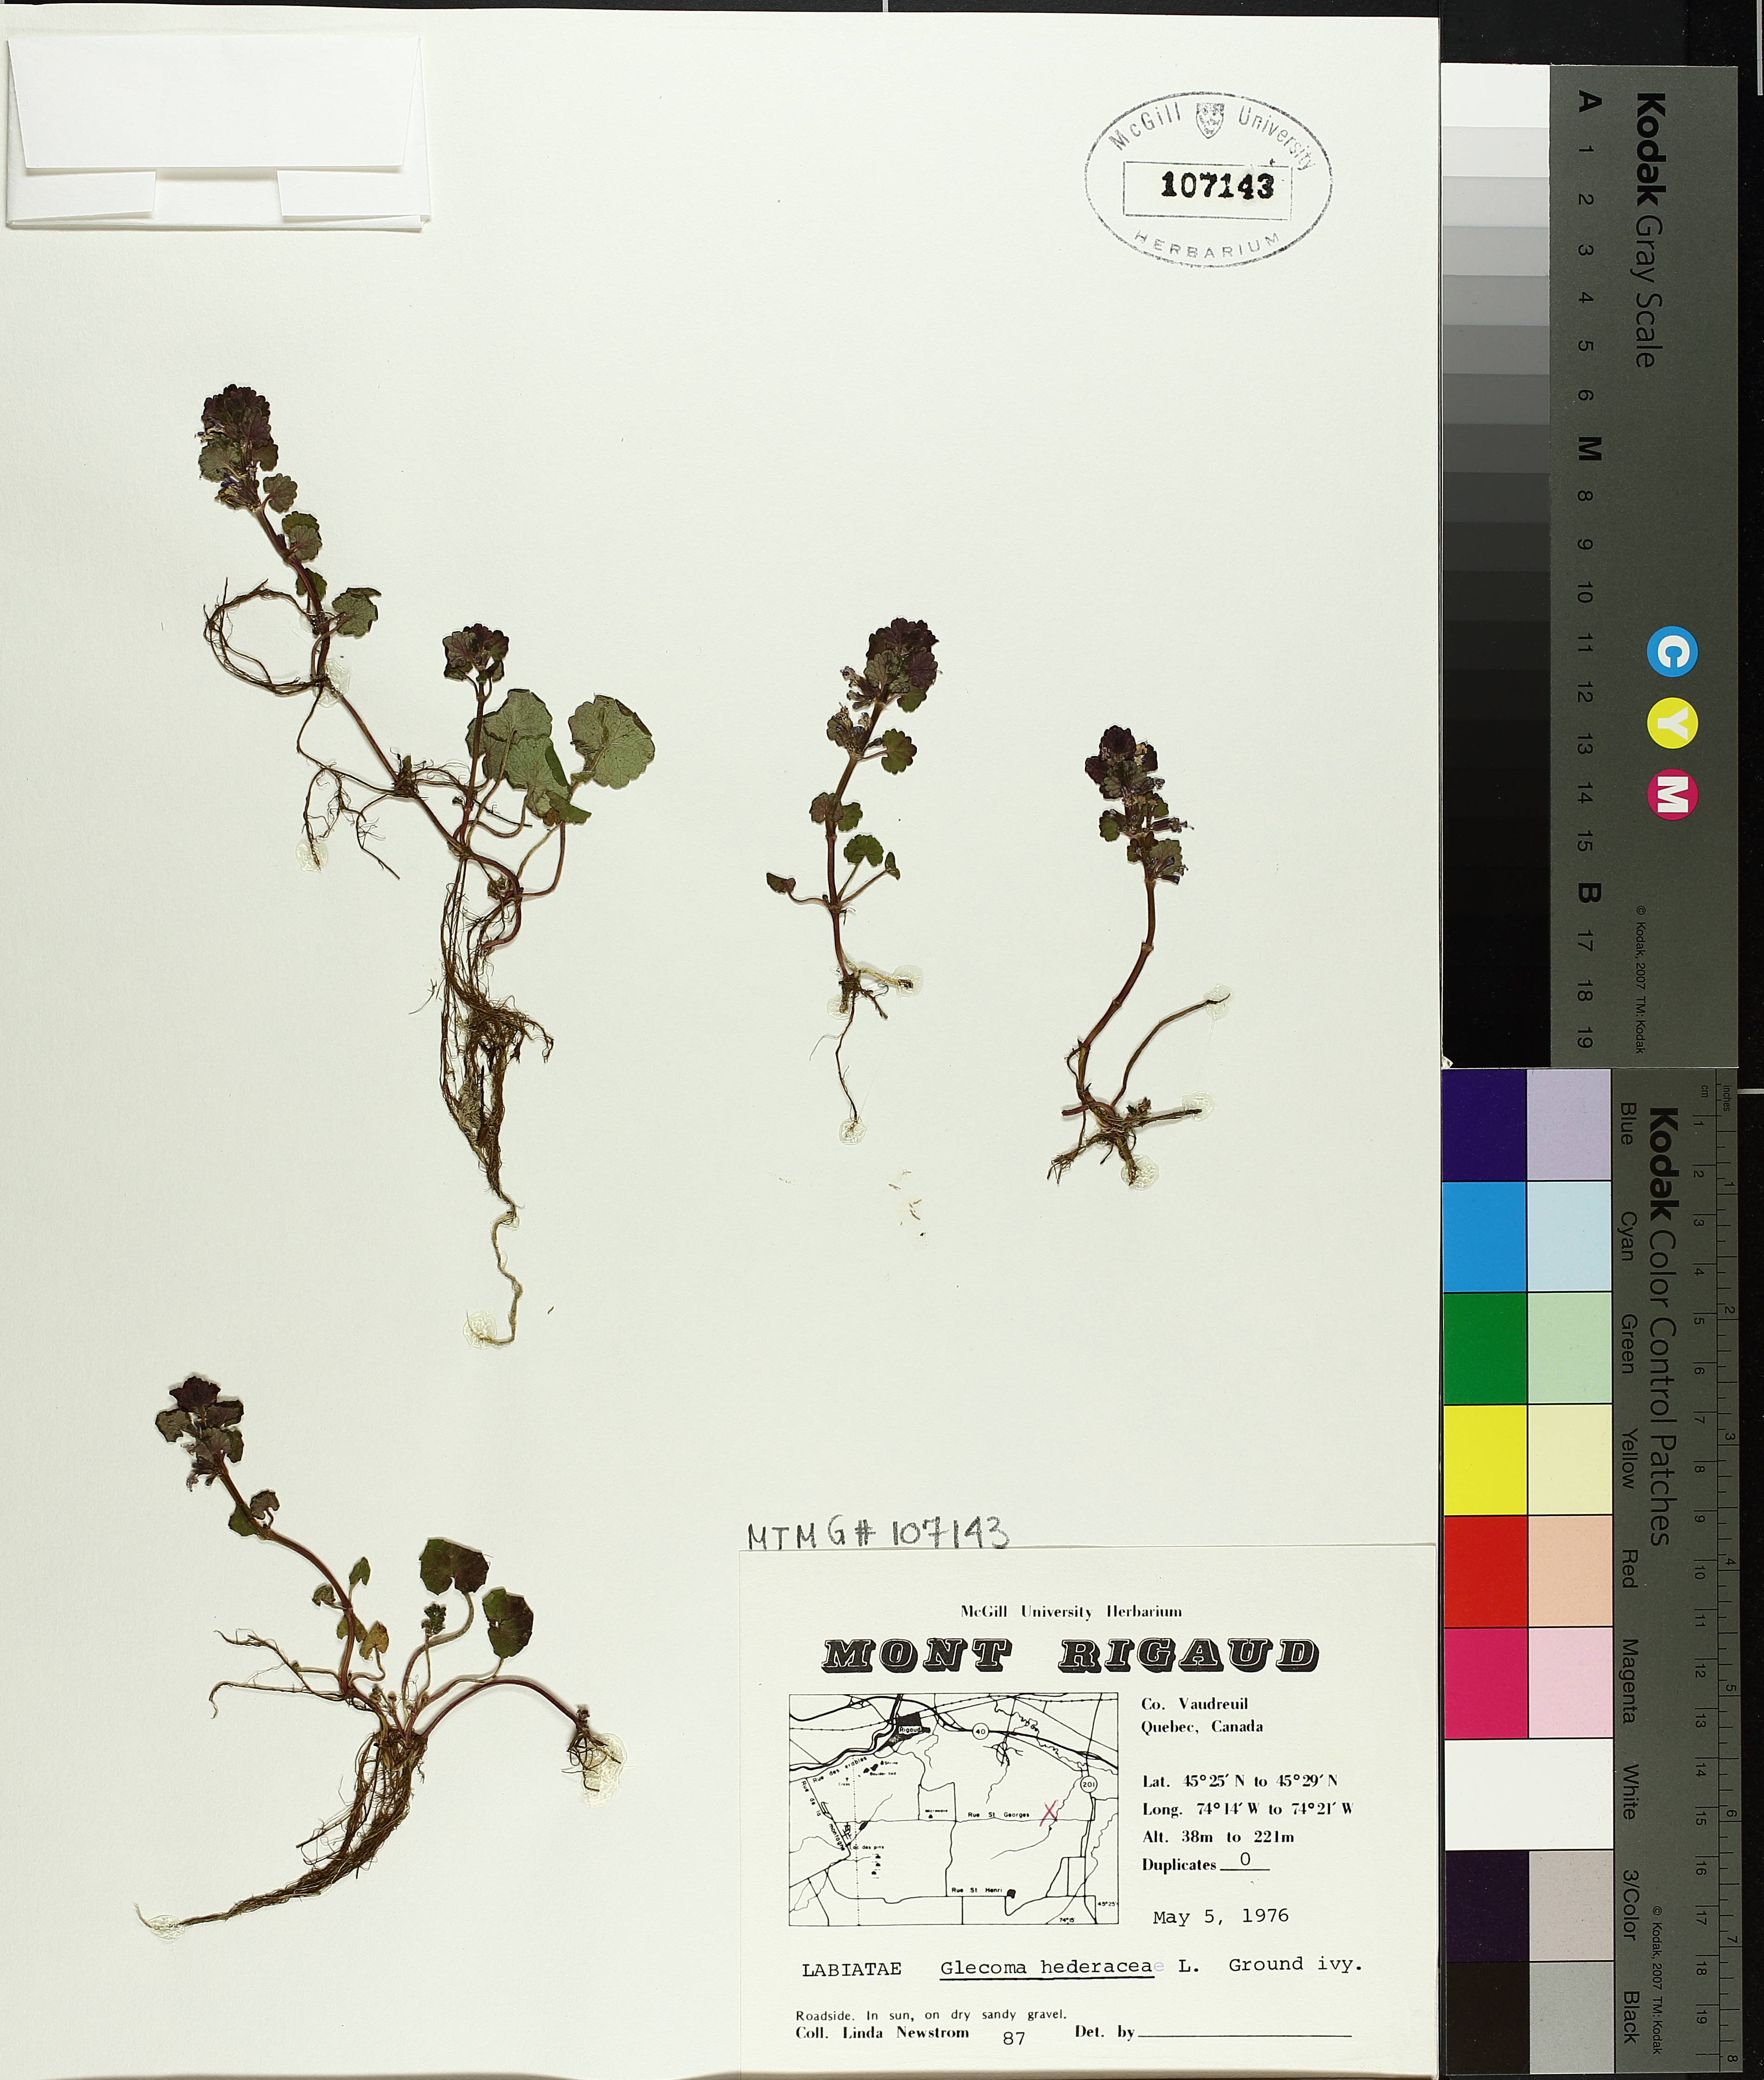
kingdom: Plantae
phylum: Tracheophyta
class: Magnoliopsida
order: Lamiales
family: Lamiaceae
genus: Glechoma
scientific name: Glechoma hederacea
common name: Ground ivy
